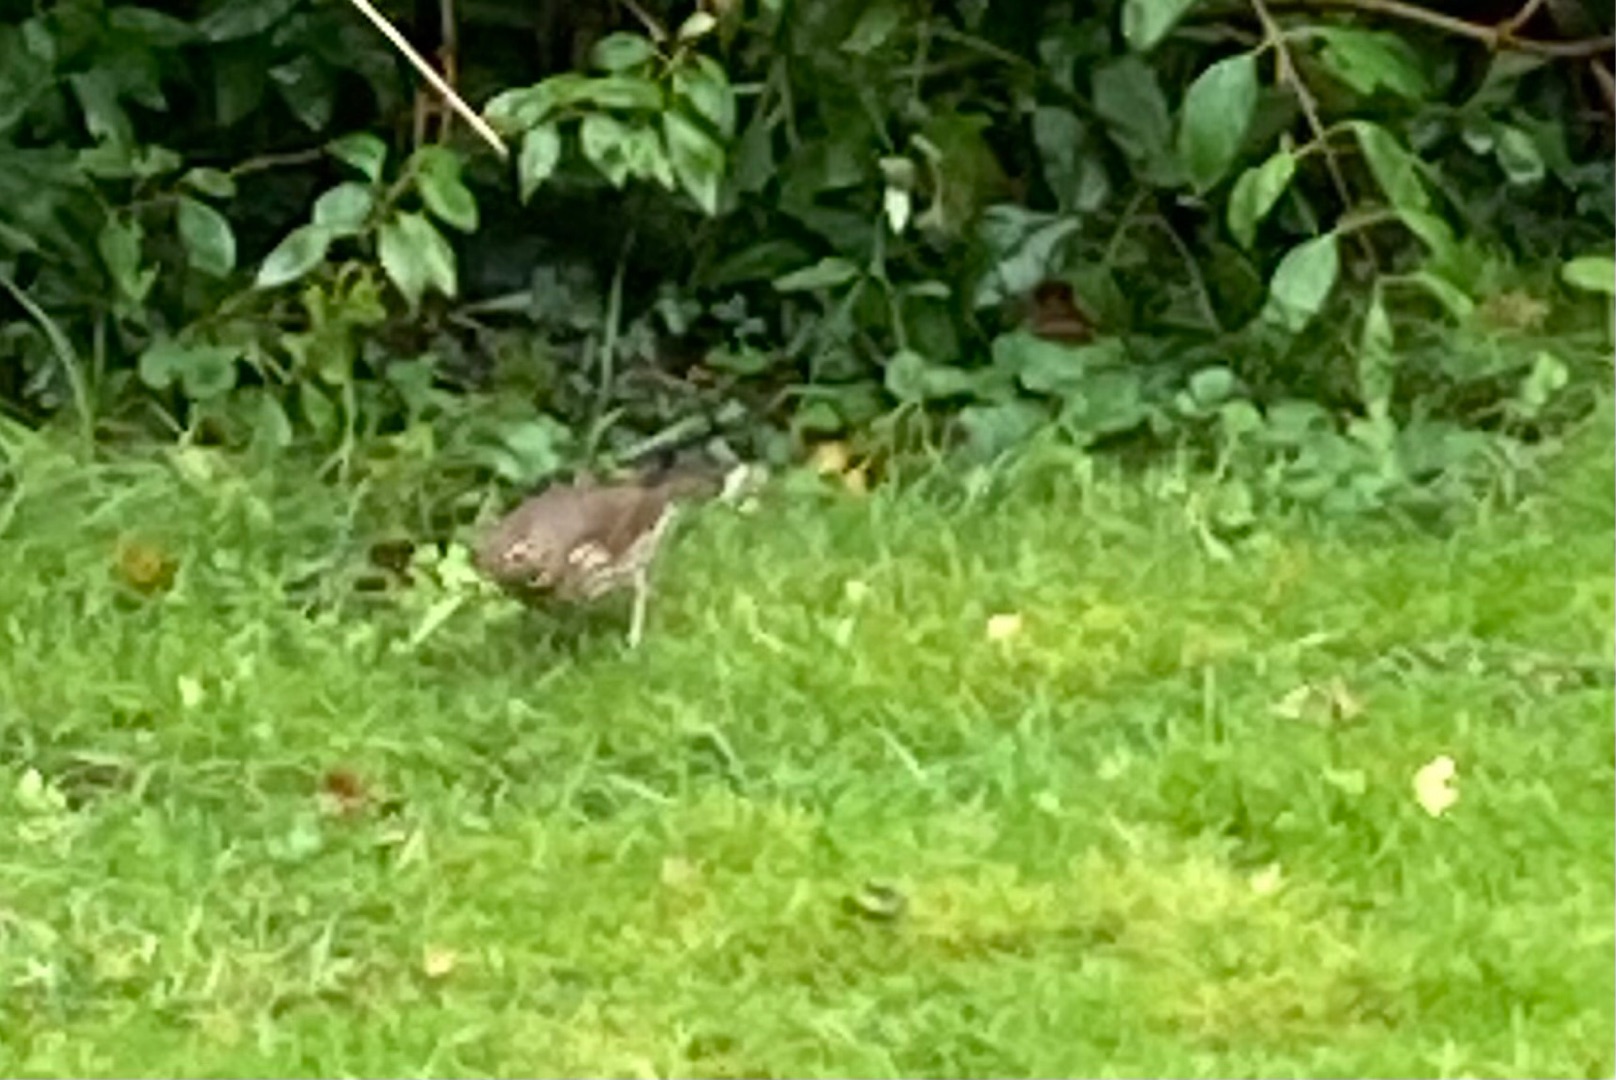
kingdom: Animalia
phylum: Chordata
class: Aves
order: Passeriformes
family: Turdidae
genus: Turdus
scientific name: Turdus philomelos
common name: Sangdrossel
